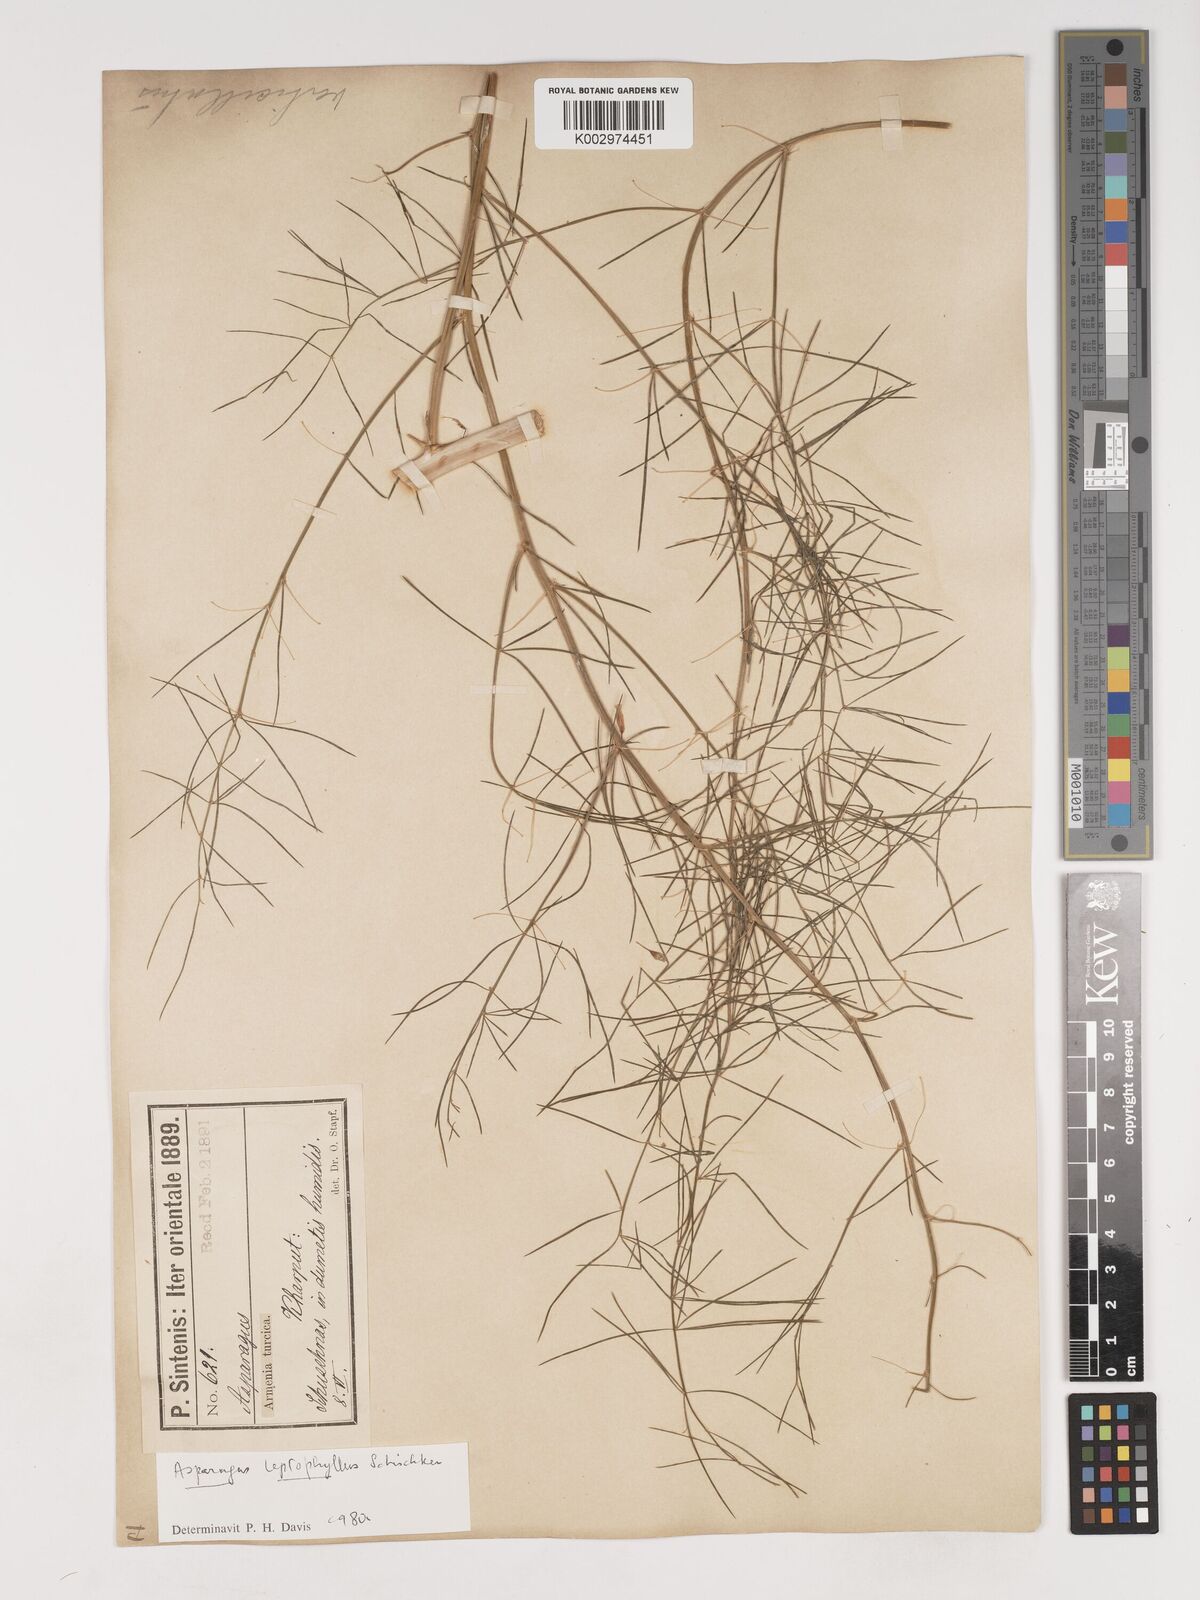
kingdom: Plantae
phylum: Tracheophyta
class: Liliopsida
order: Asparagales
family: Asparagaceae
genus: Asparagus
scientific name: Asparagus persicus
